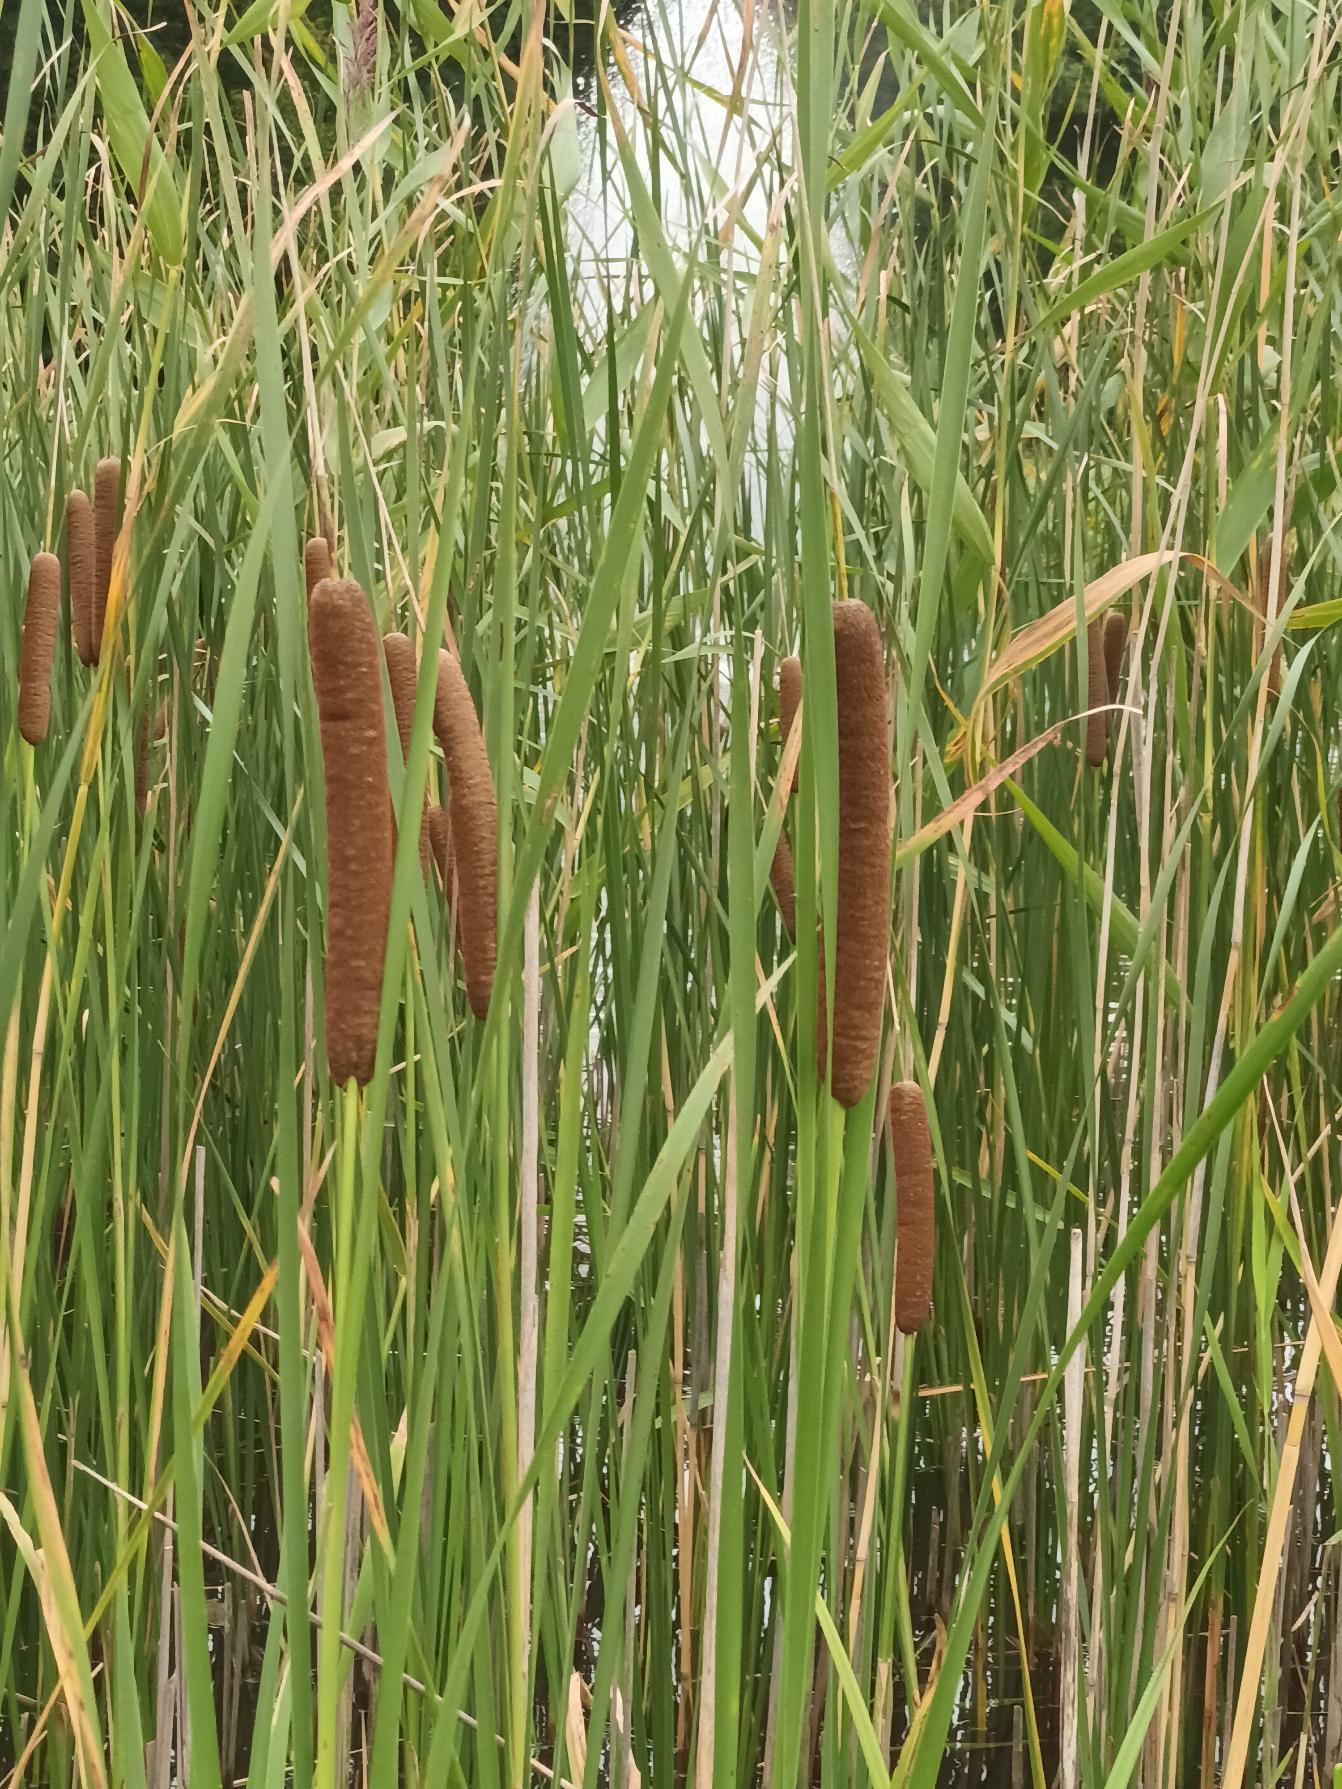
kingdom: Plantae
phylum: Tracheophyta
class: Liliopsida
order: Poales
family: Typhaceae
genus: Typha
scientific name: Typha angustifolia
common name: Smalbladet dunhammer
